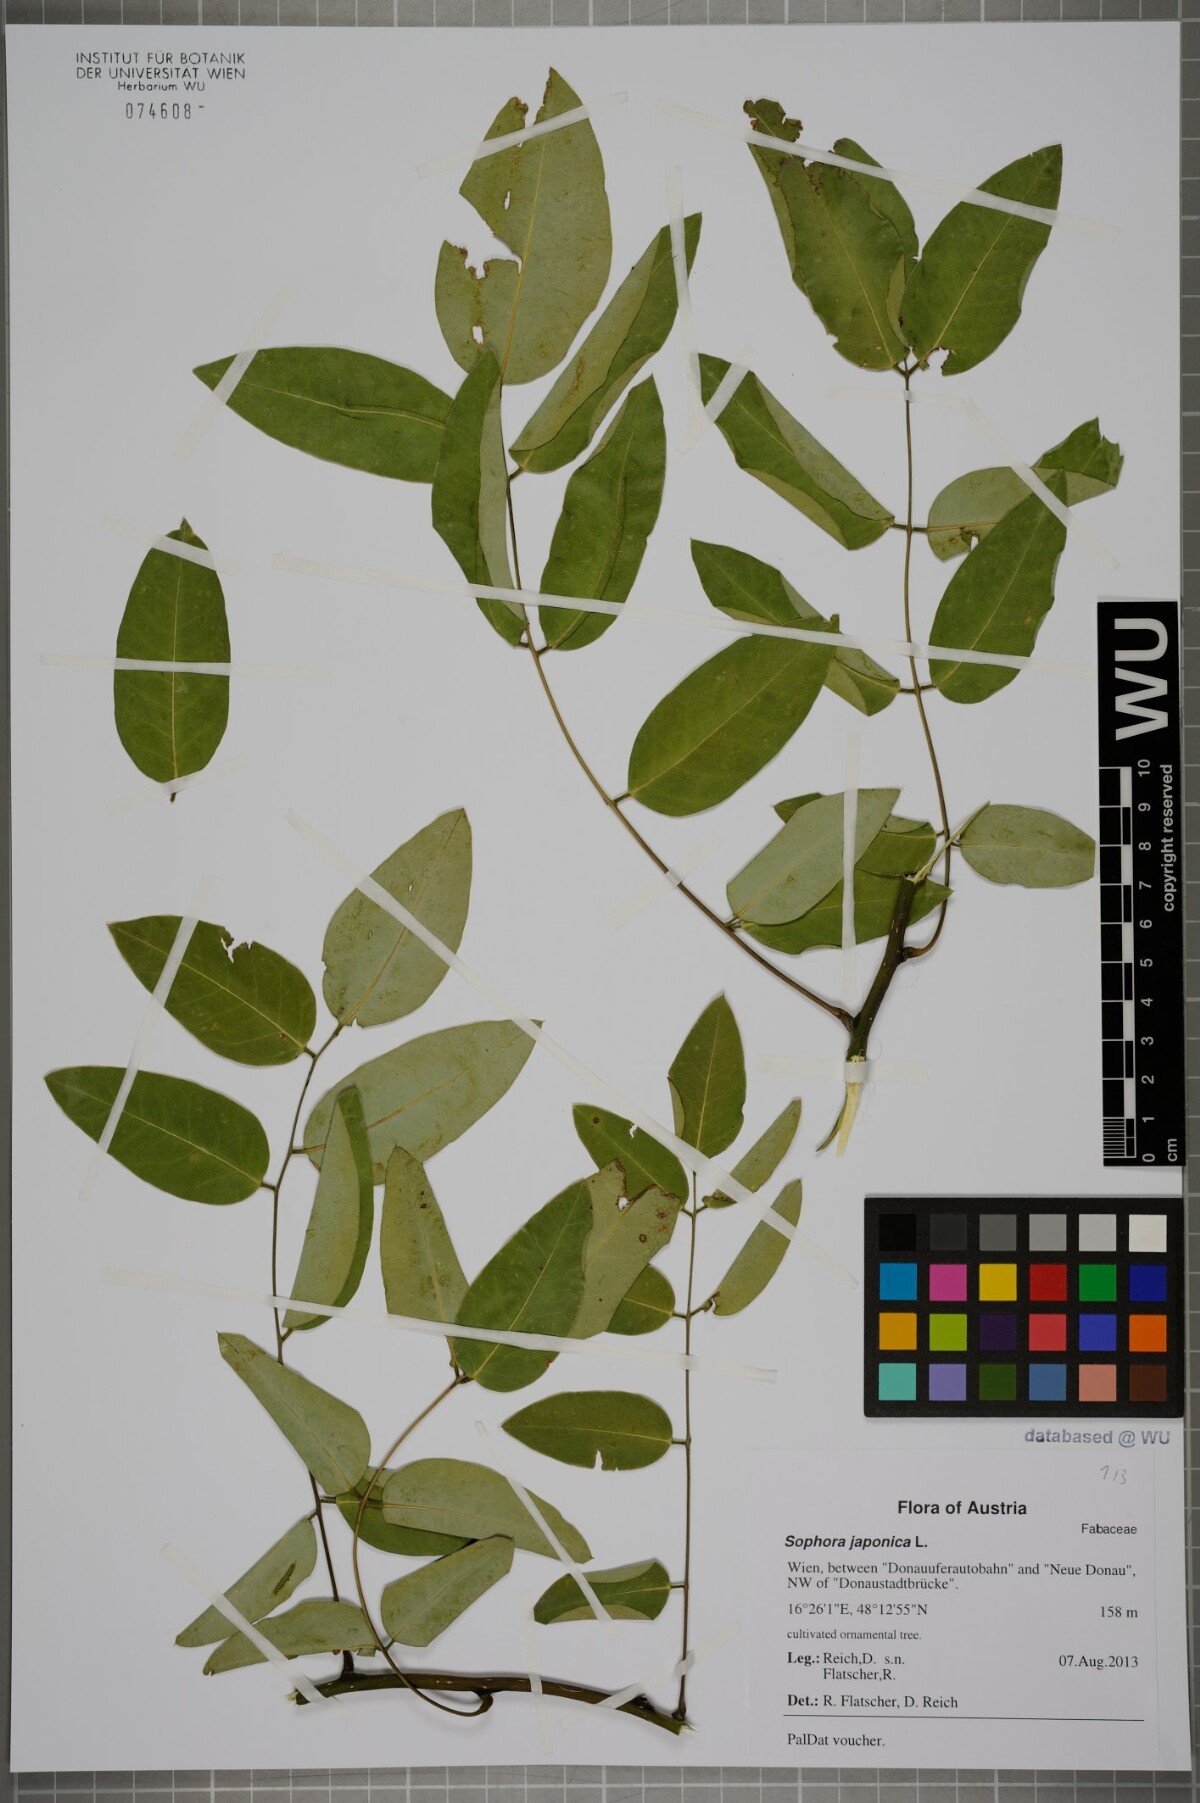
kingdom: Plantae
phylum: Tracheophyta
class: Magnoliopsida
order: Fabales
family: Fabaceae
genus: Styphnolobium
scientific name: Styphnolobium japonicum
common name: Chinese scholartree
